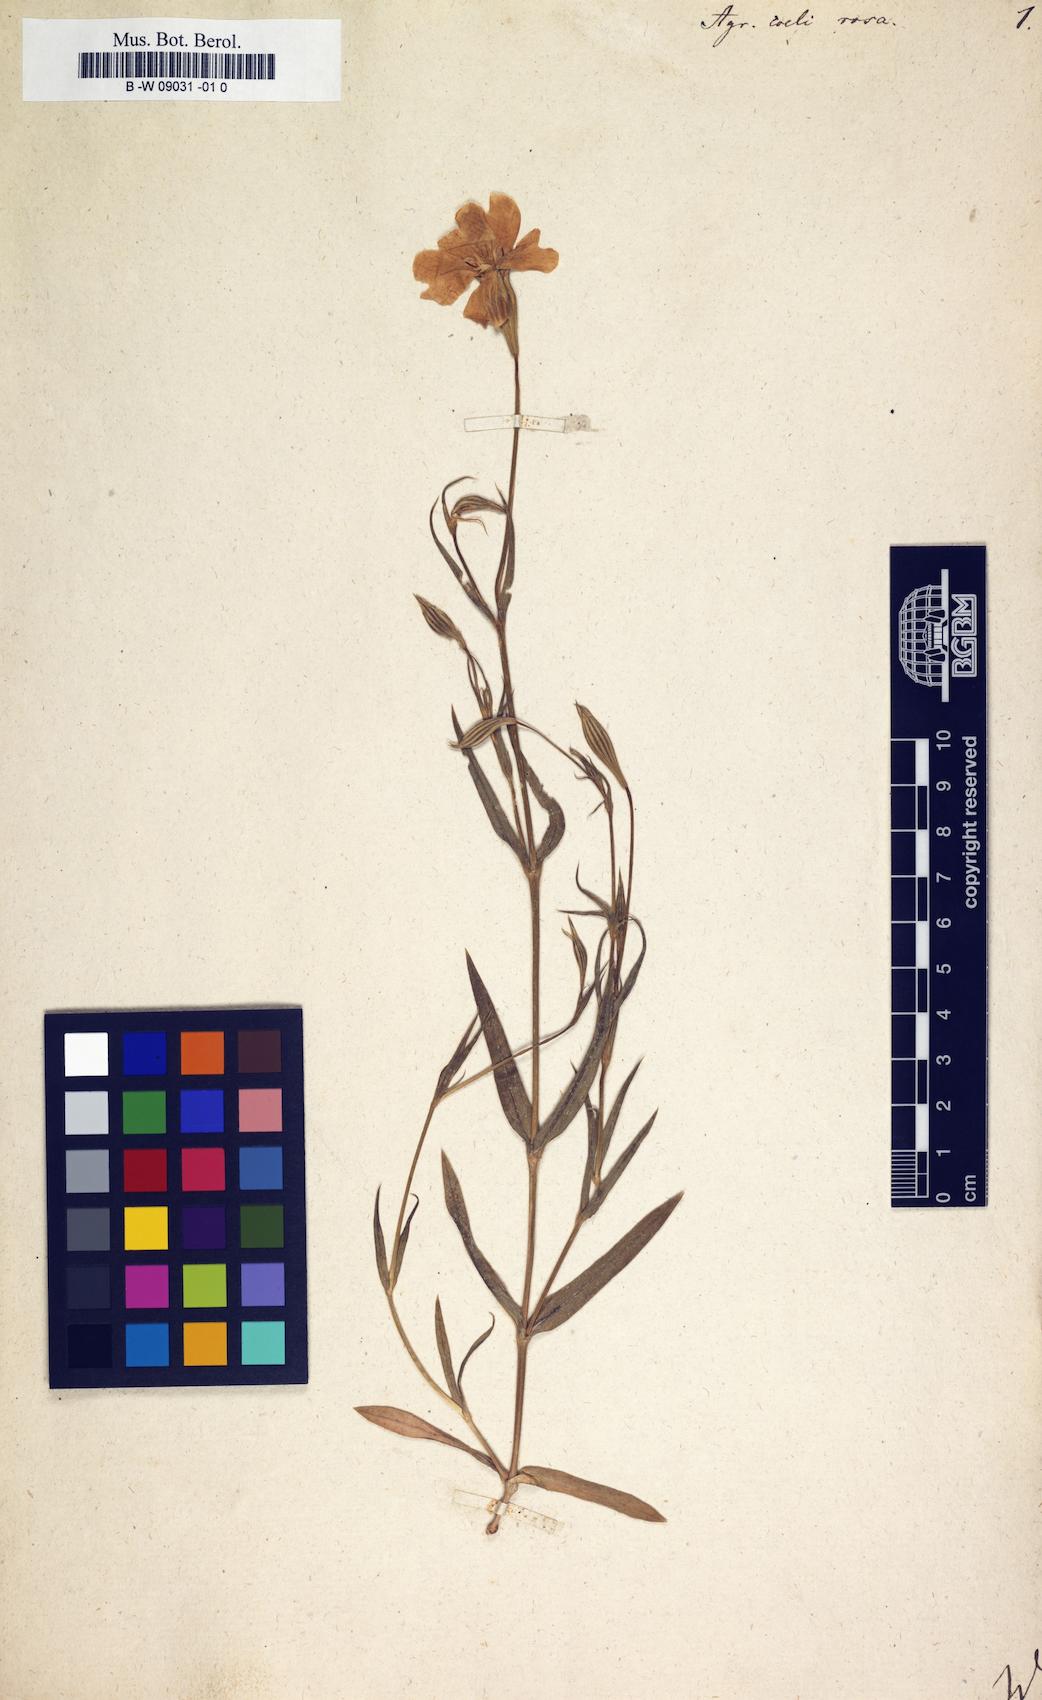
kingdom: Plantae
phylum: Tracheophyta
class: Magnoliopsida
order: Caryophyllales
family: Caryophyllaceae
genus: Eudianthe
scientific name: Eudianthe coeli-rosa
